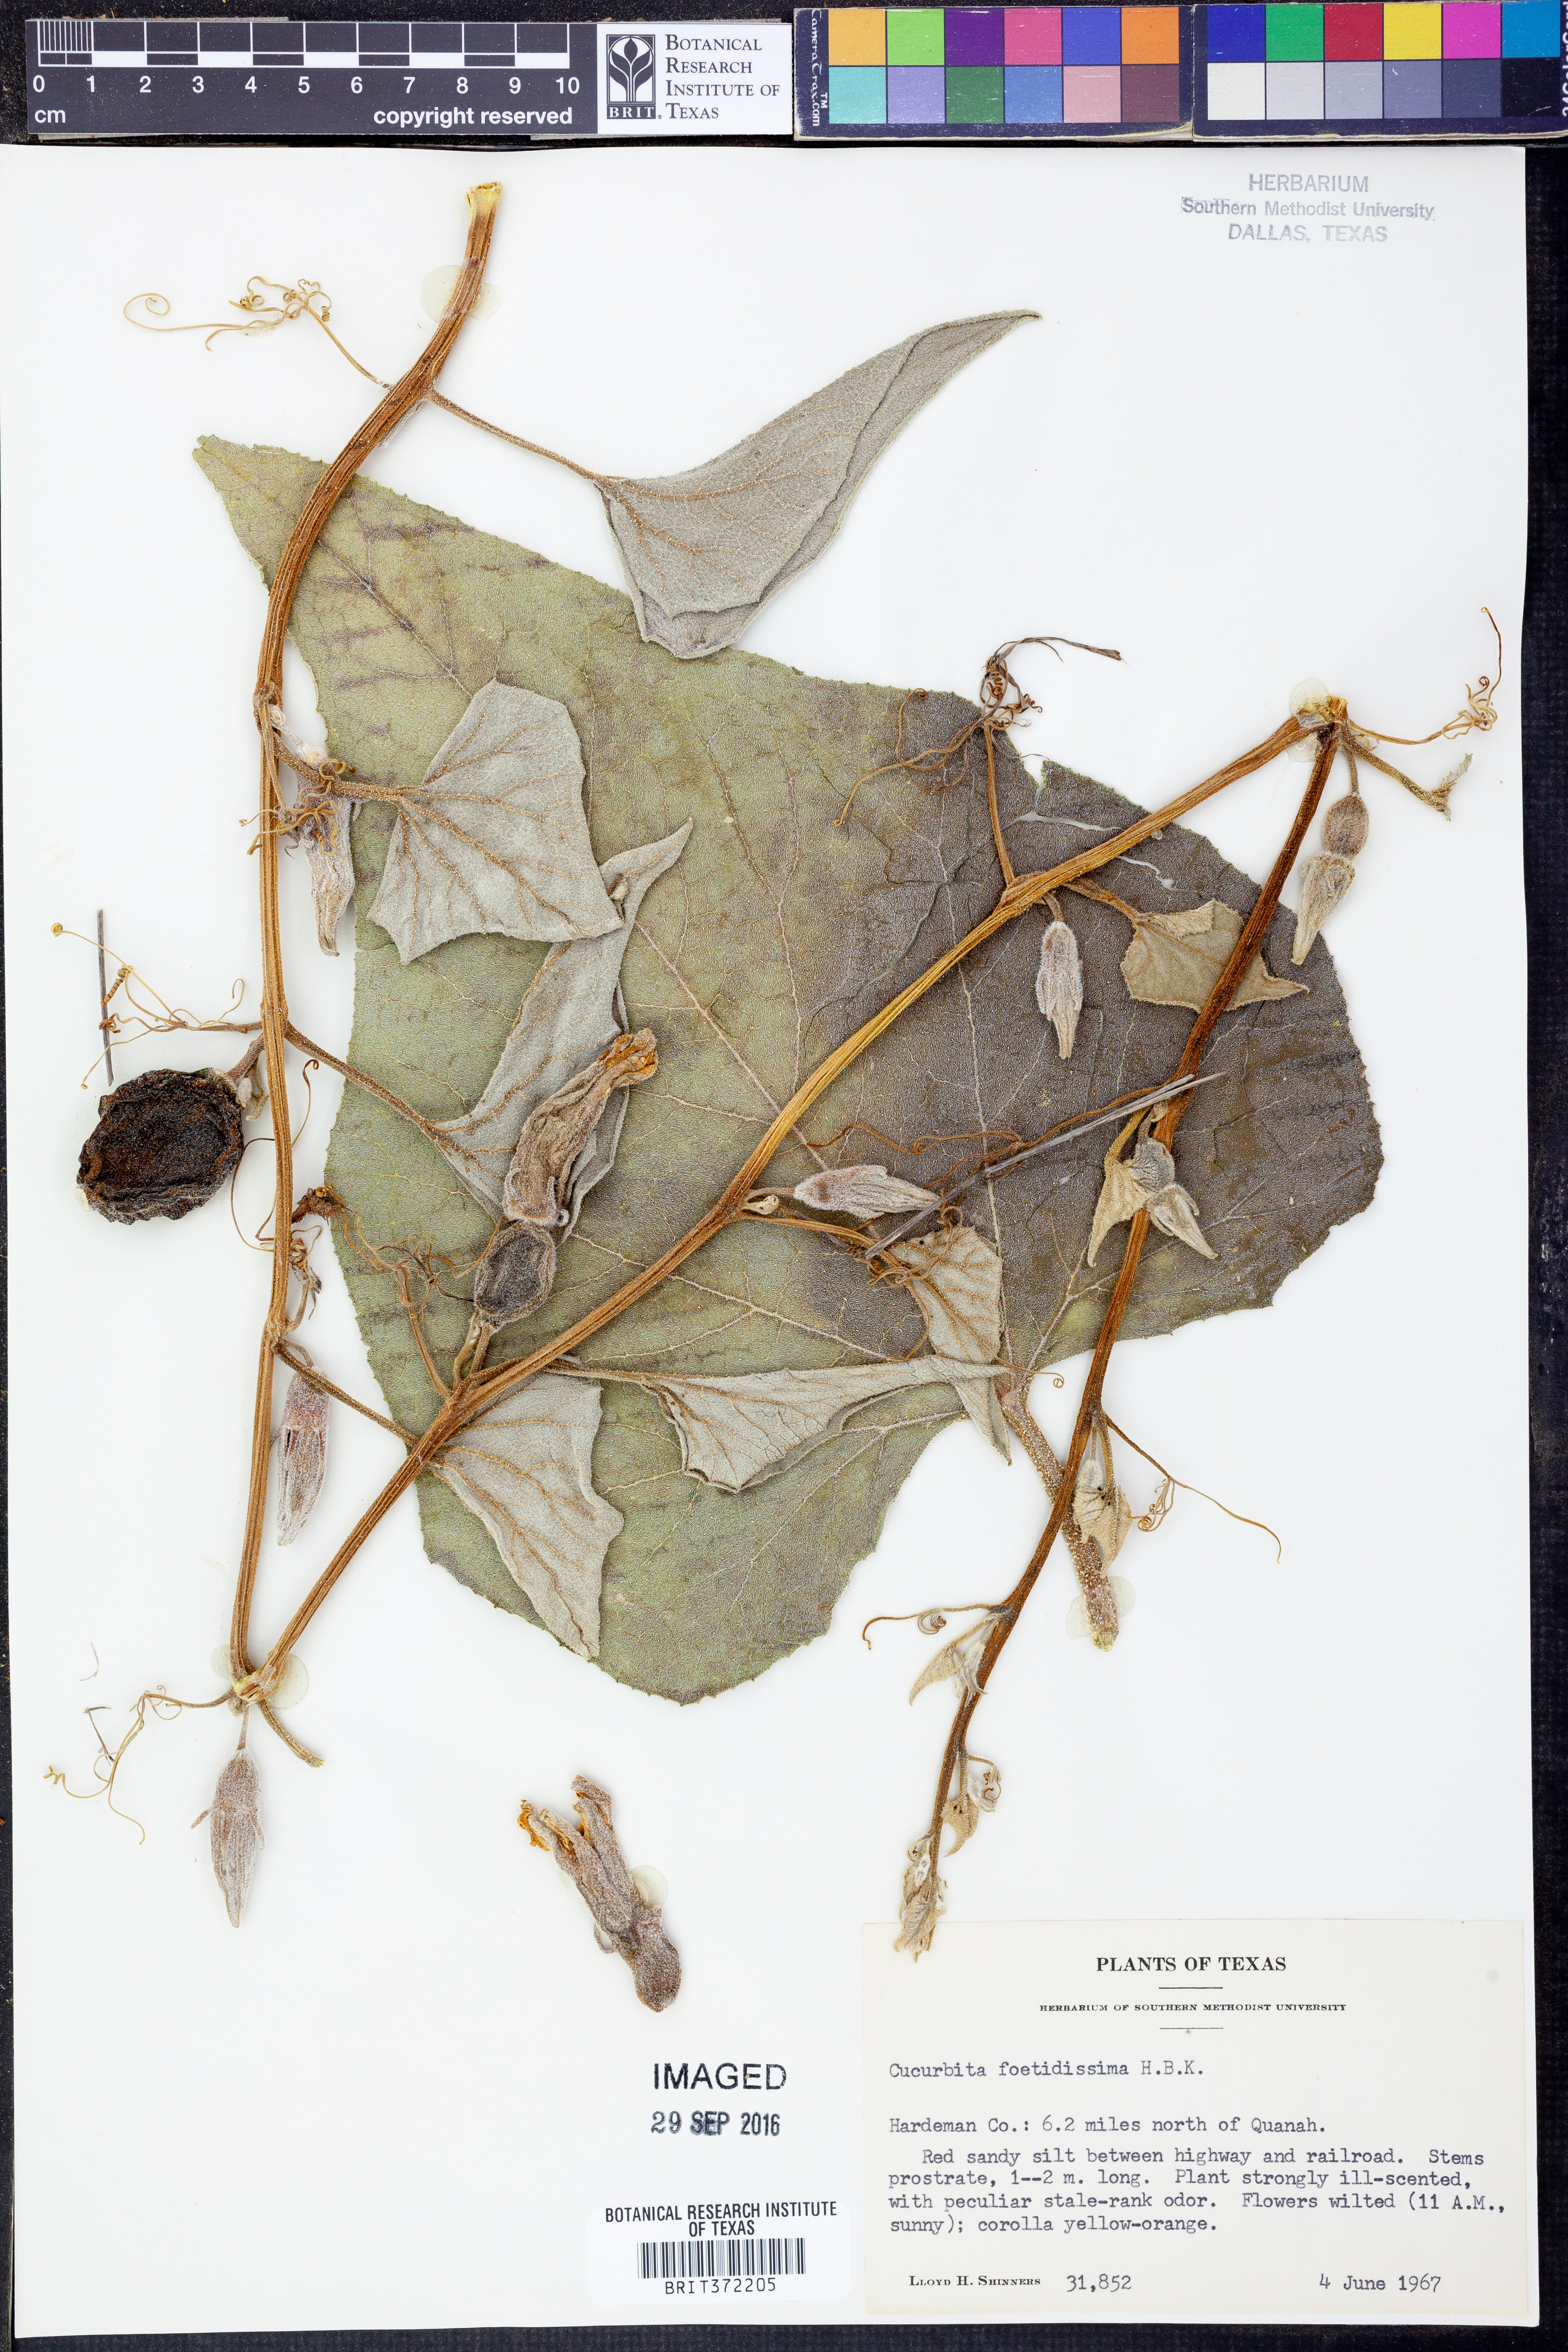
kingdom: Plantae
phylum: Tracheophyta
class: Magnoliopsida
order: Cucurbitales
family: Cucurbitaceae
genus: Cucurbita
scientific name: Cucurbita foetidissima
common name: Buffalo gourd
